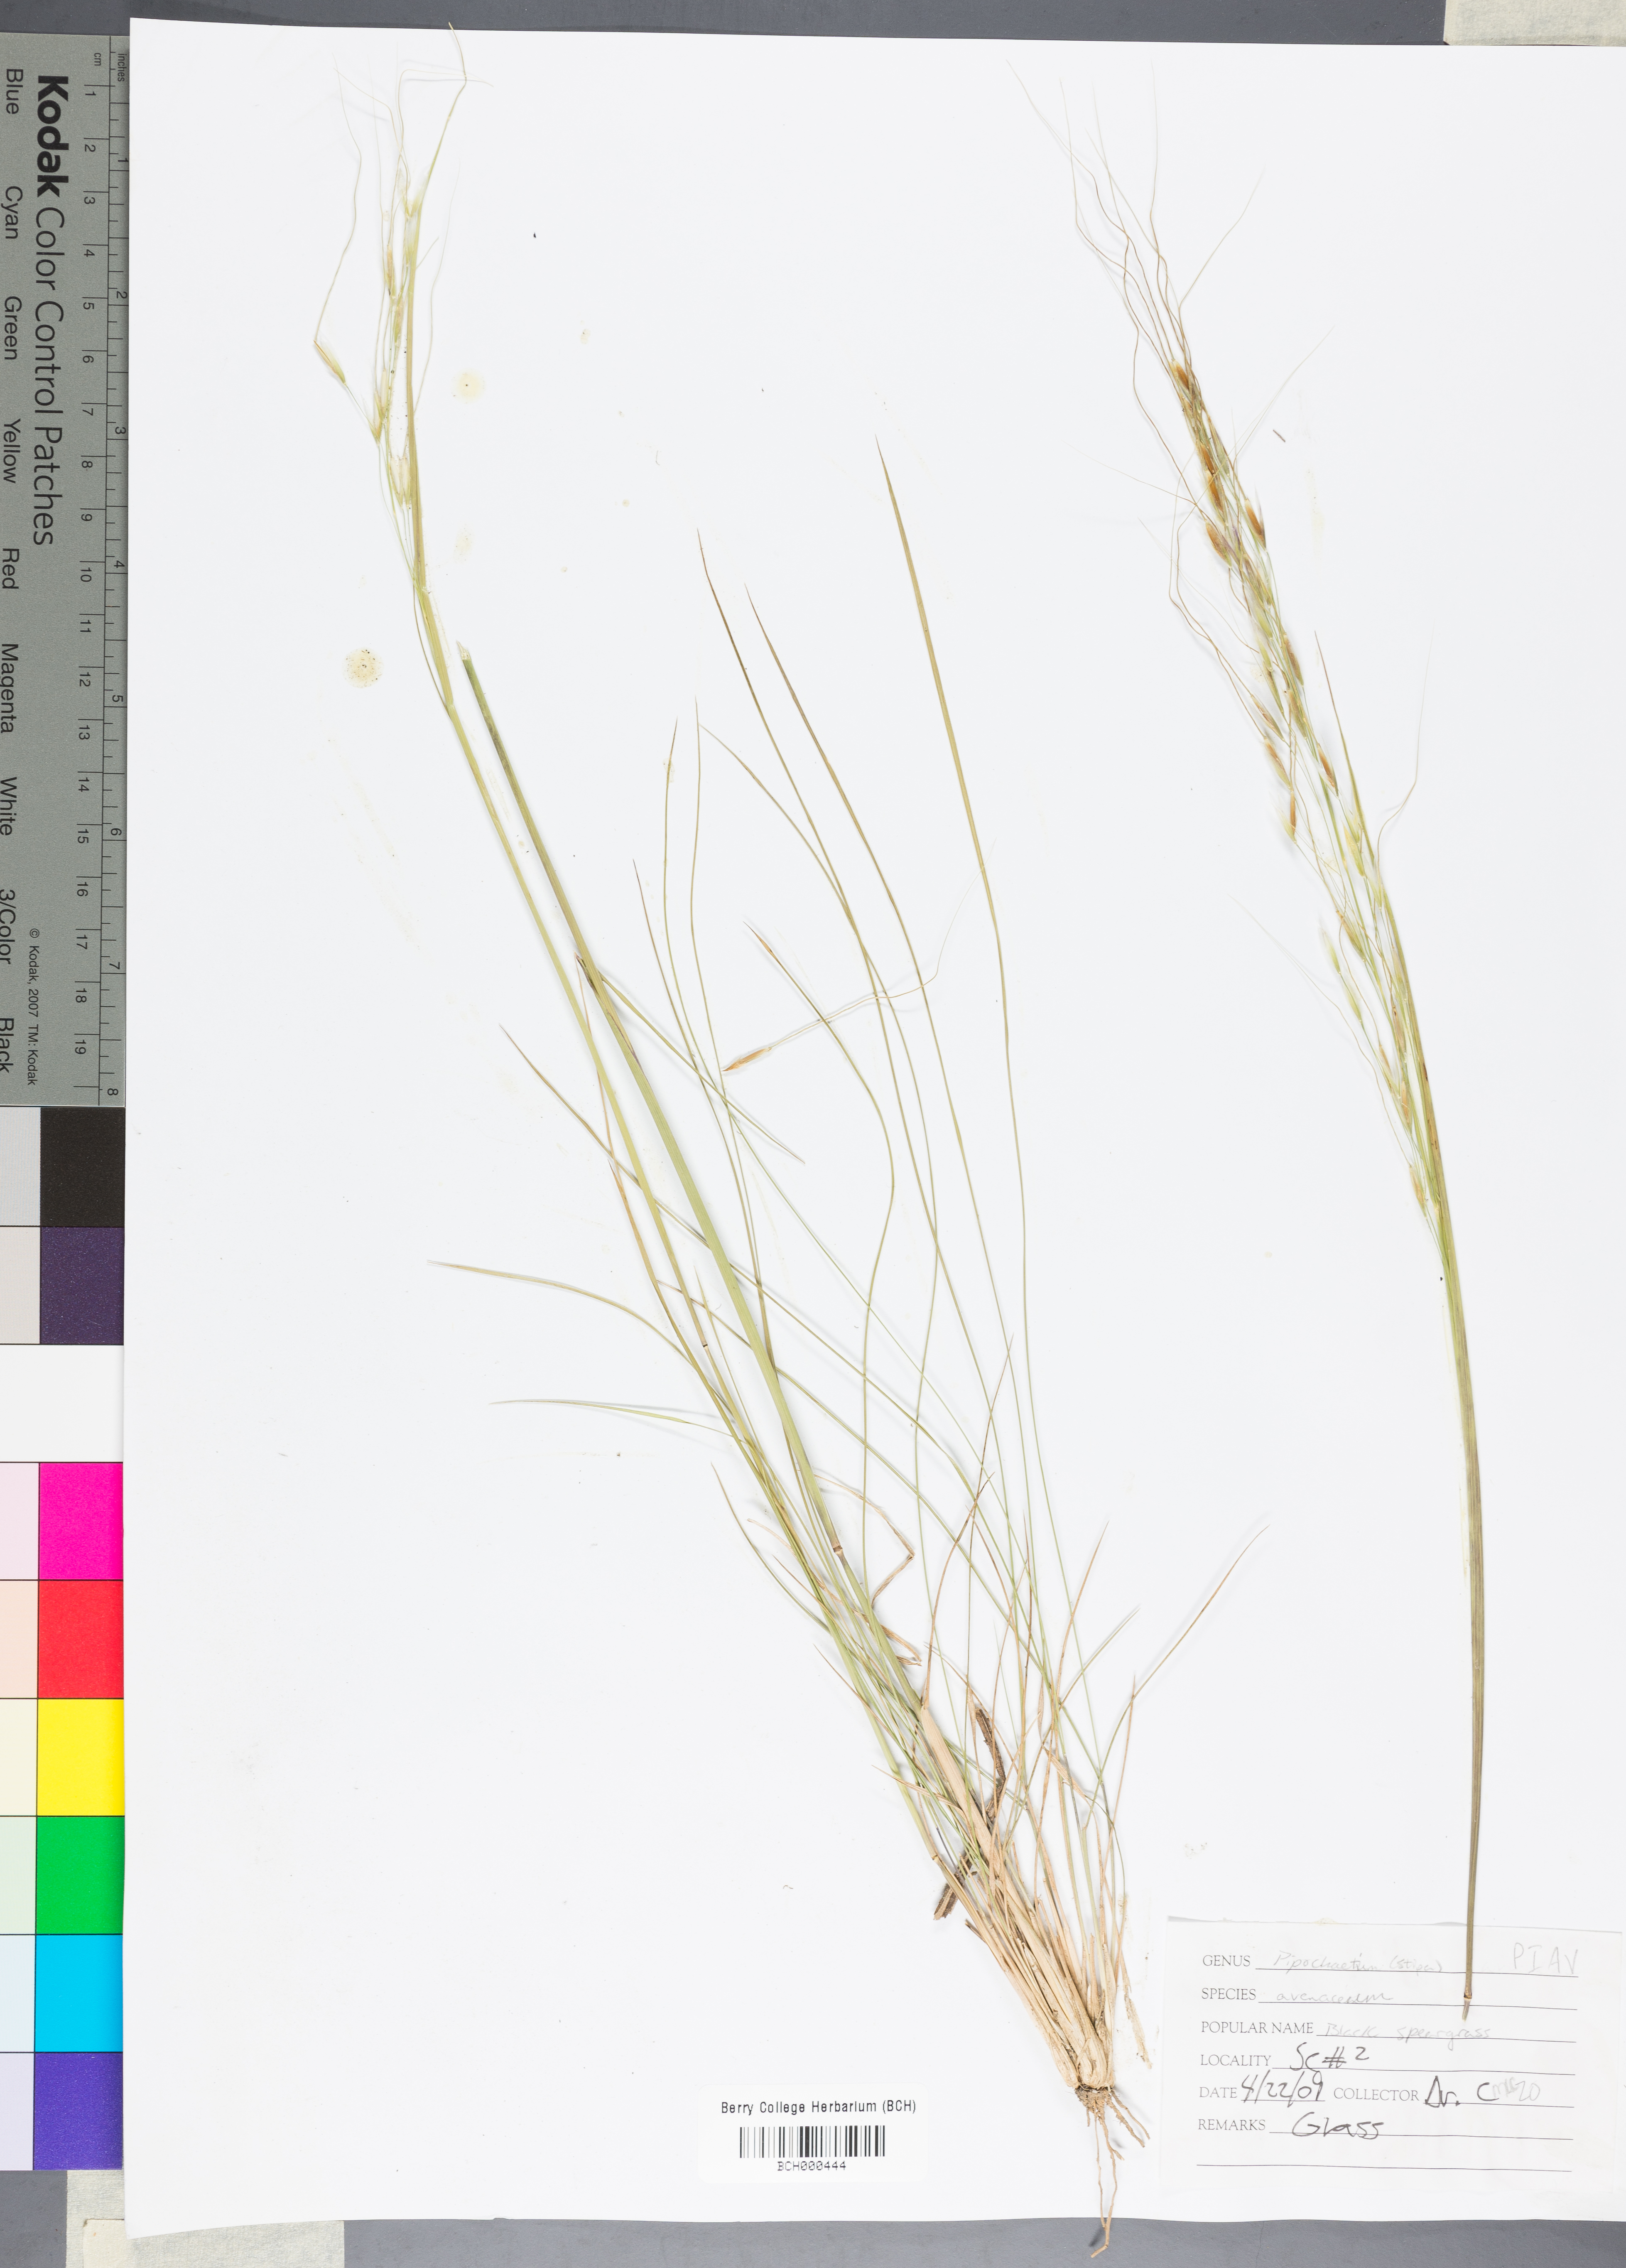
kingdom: Plantae
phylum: Tracheophyta
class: Liliopsida
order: Poales
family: Poaceae
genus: Piptochaetium
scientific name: Piptochaetium avenaceum
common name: Black bunchgrass
